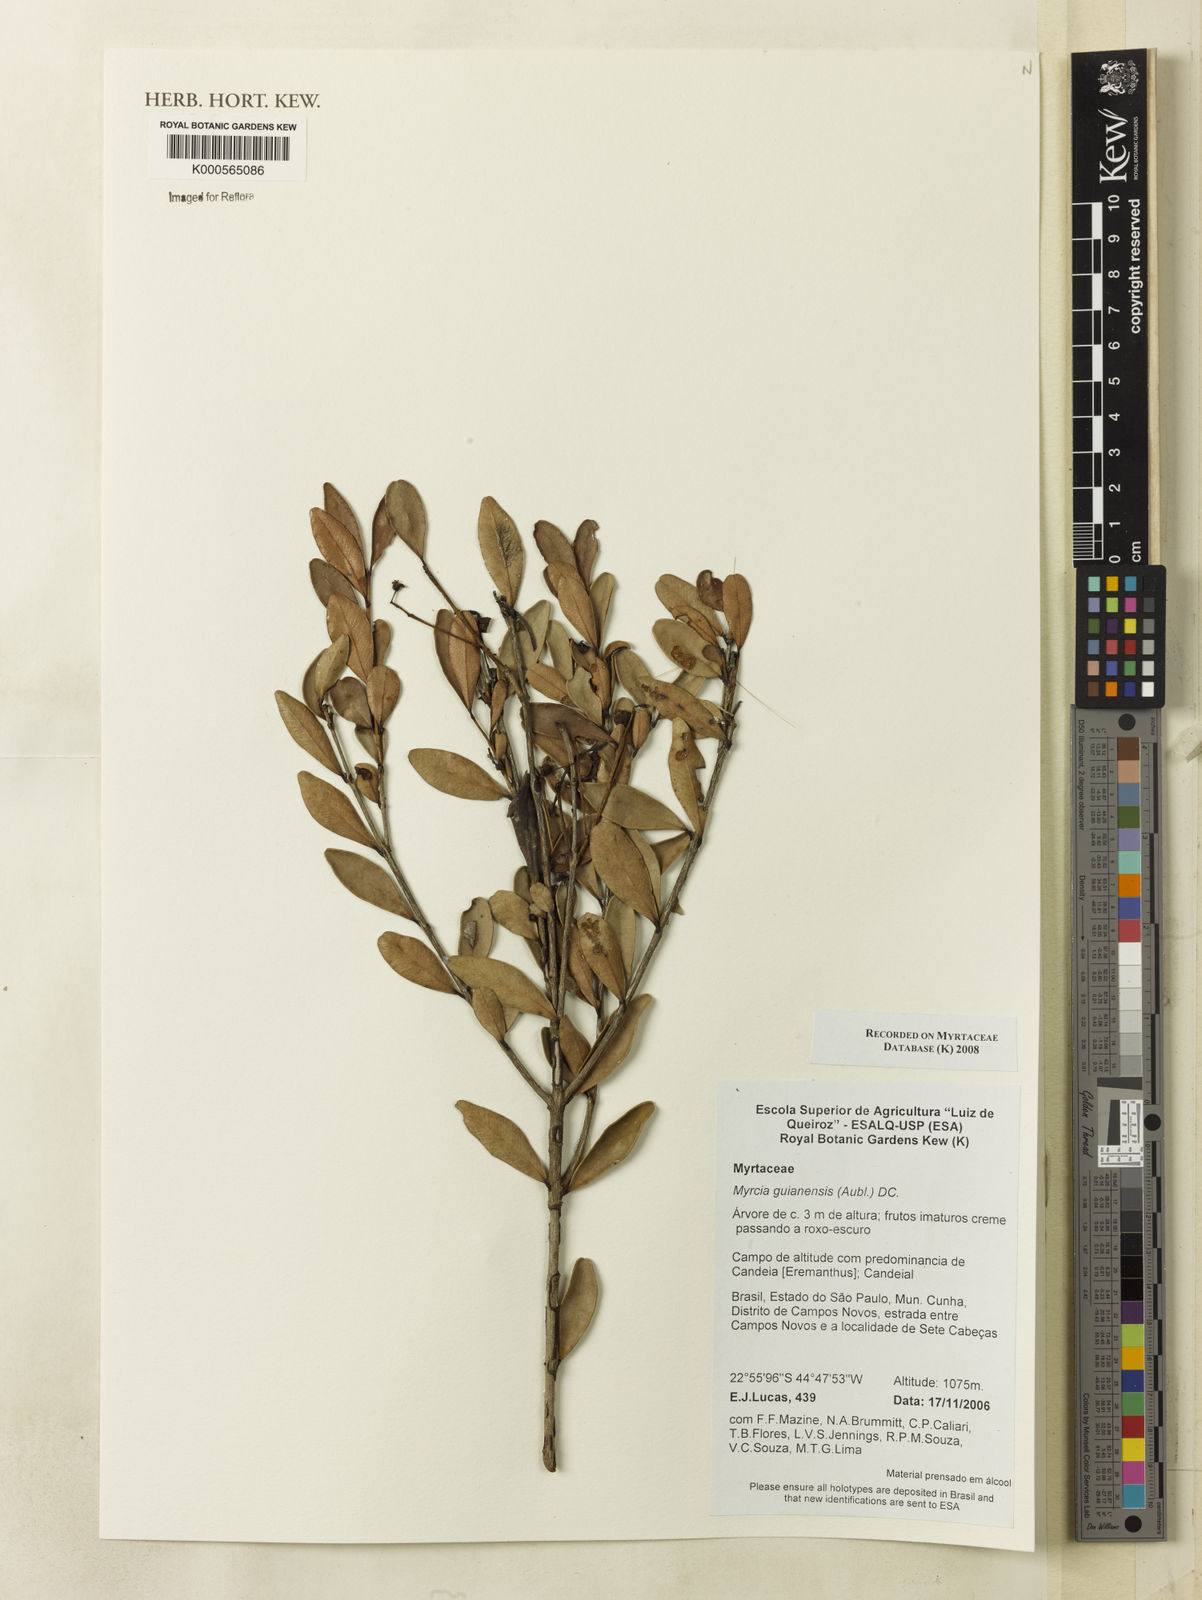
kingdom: Plantae
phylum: Tracheophyta
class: Magnoliopsida
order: Myrtales
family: Myrtaceae
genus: Myrcia
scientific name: Myrcia guianensis
